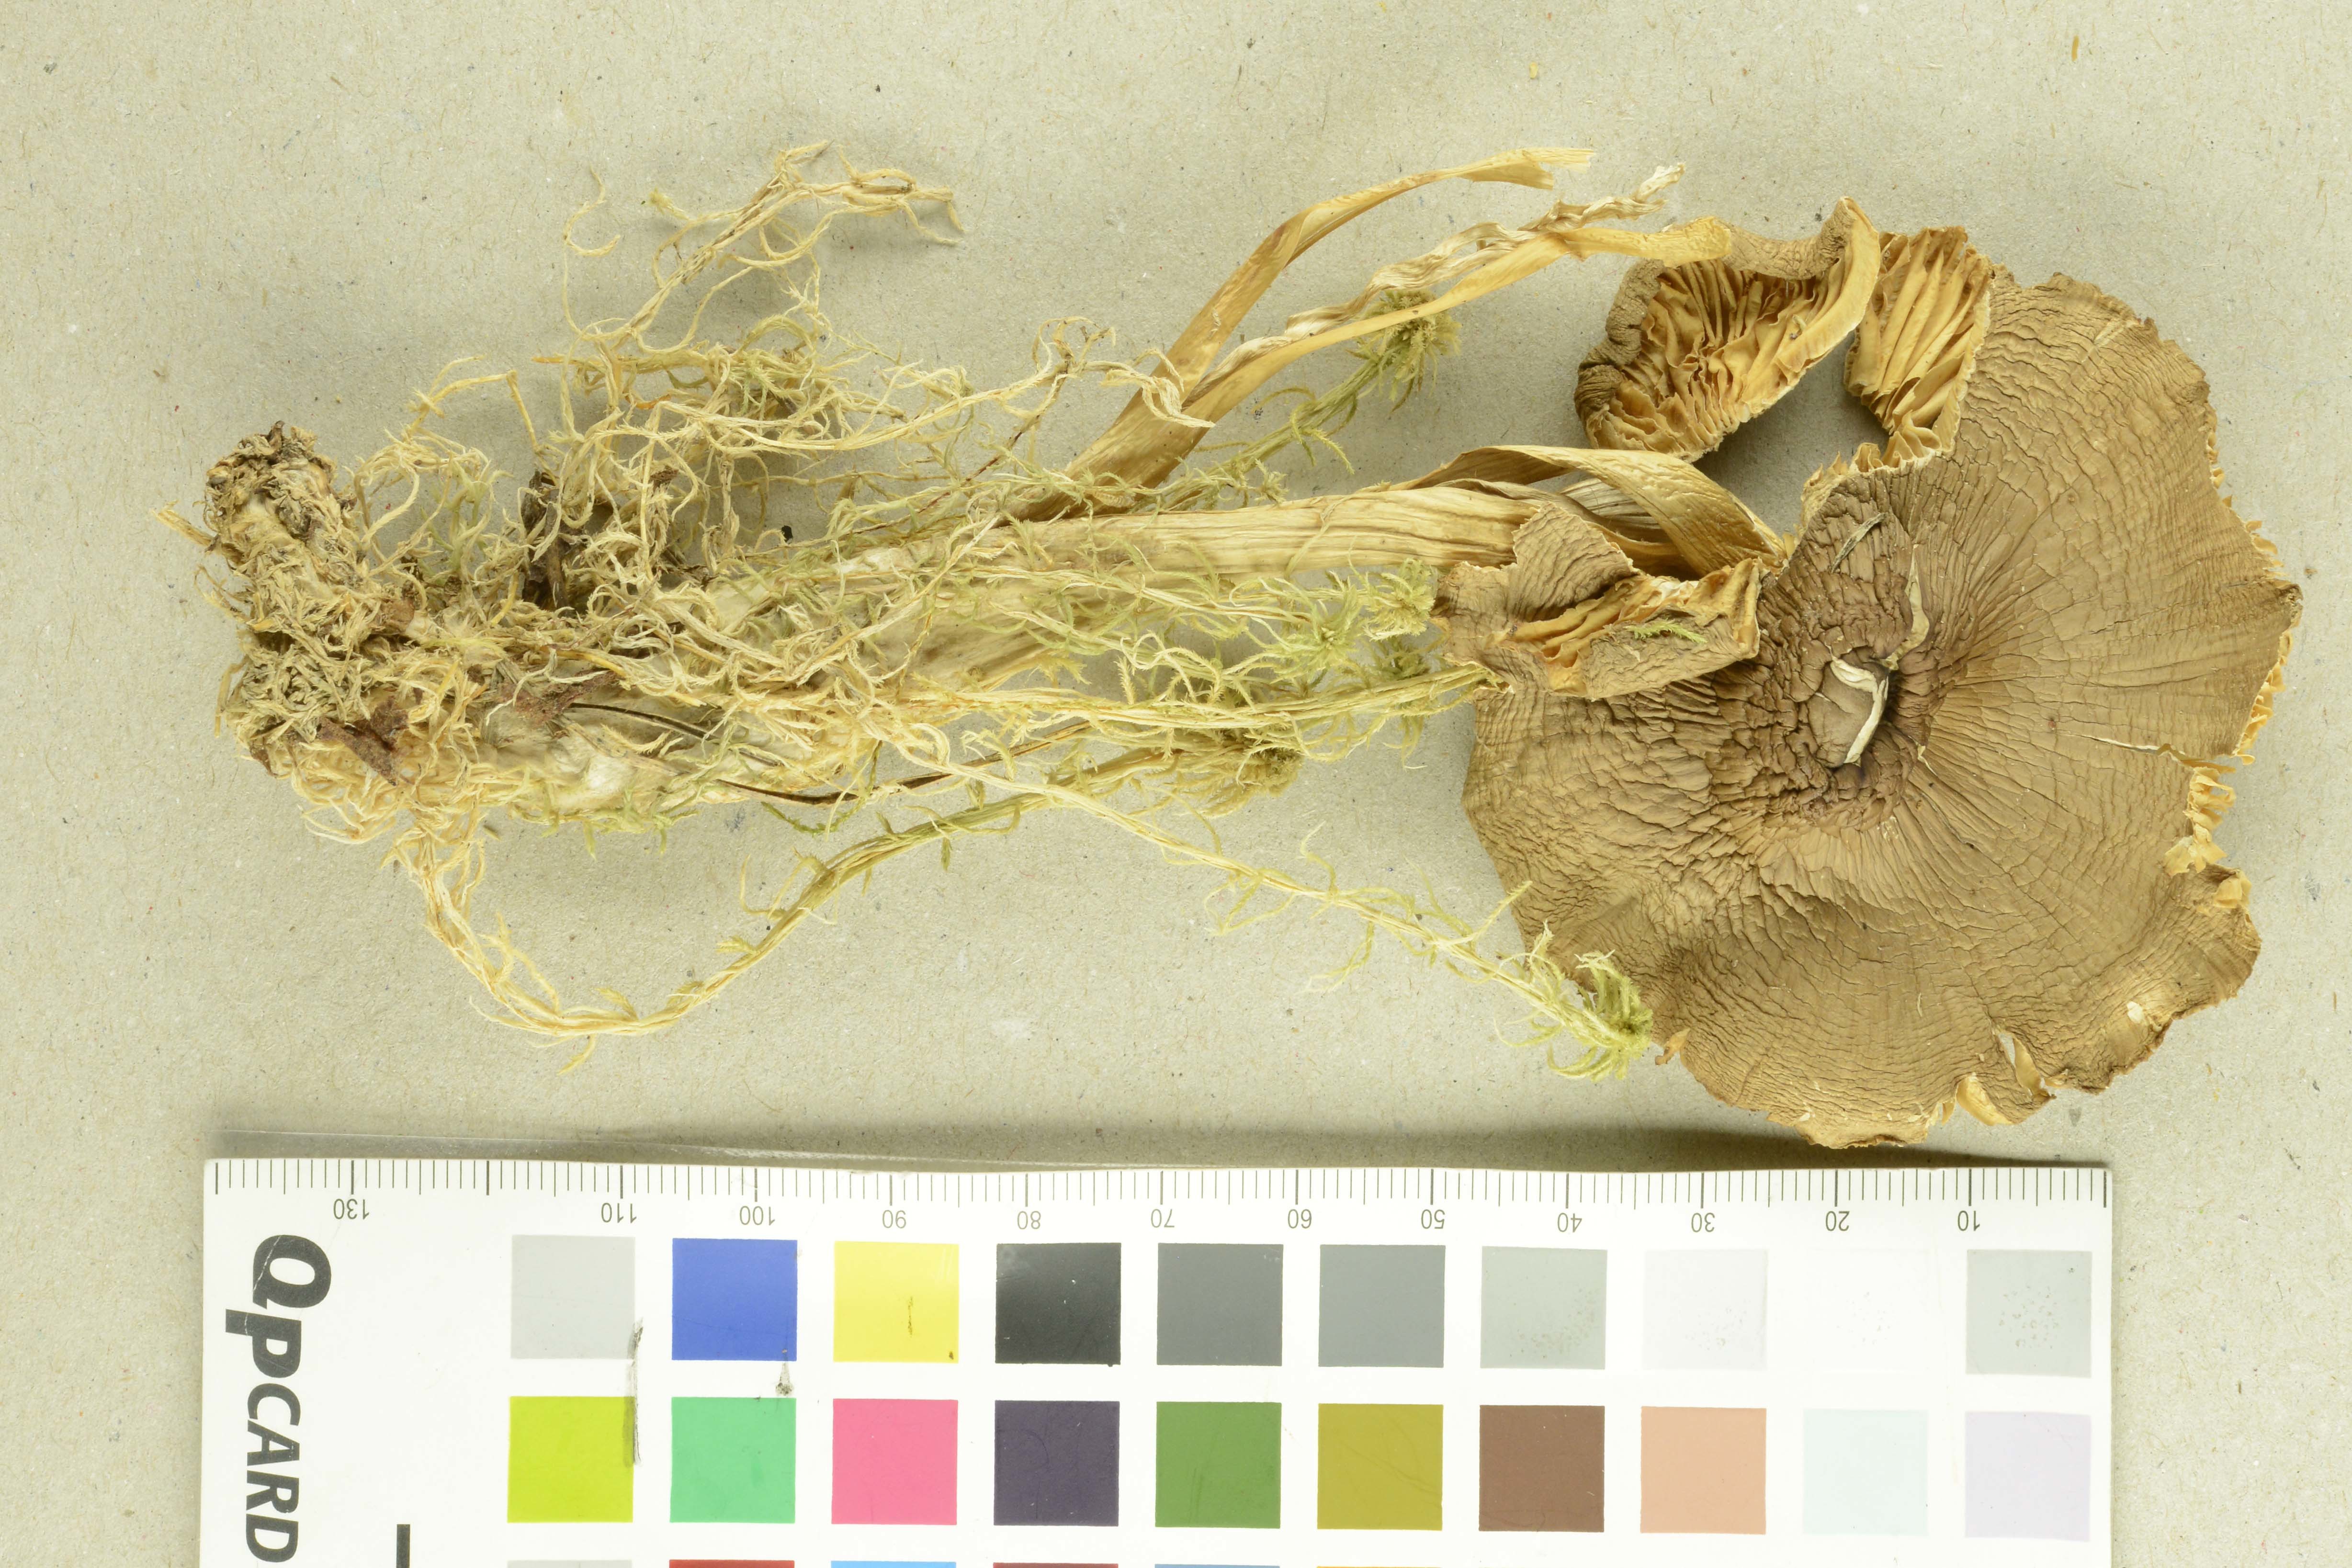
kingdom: Fungi
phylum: Basidiomycota
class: Agaricomycetes
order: Agaricales
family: Omphalotaceae
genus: Rhodocollybia
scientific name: Rhodocollybia prolixa
